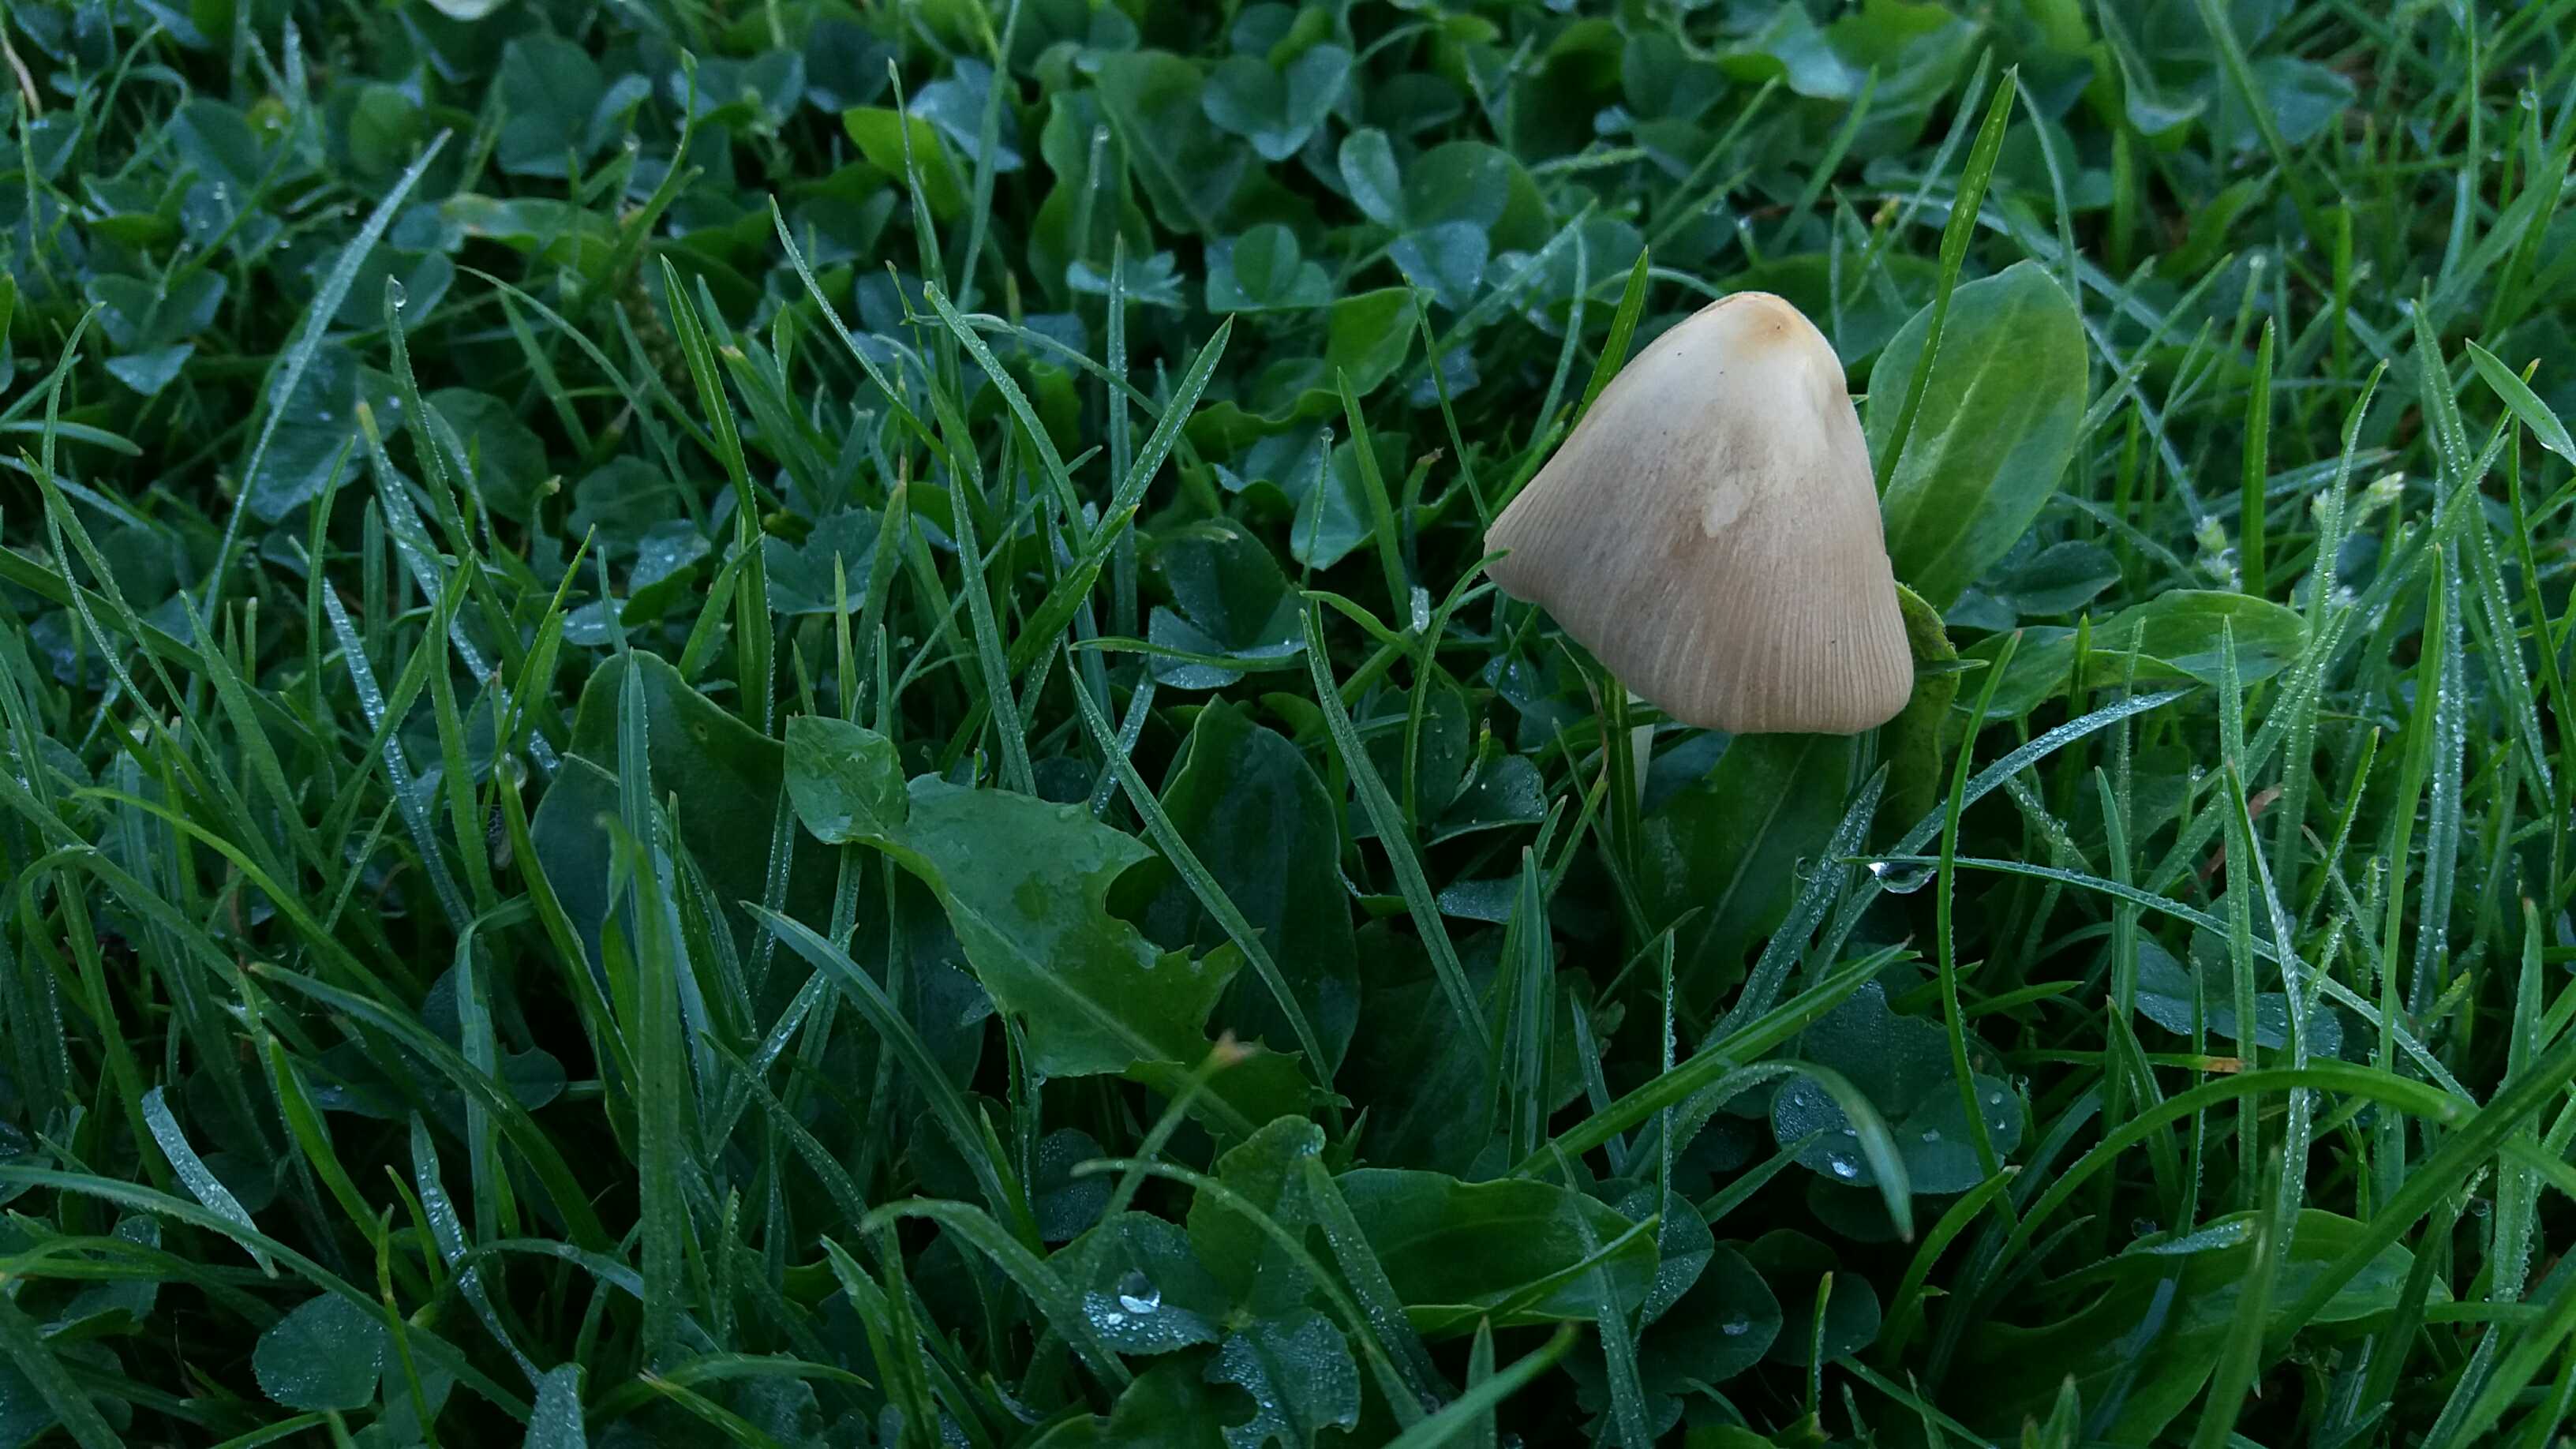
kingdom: Fungi
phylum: Basidiomycota
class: Agaricomycetes
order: Agaricales
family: Bolbitiaceae
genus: Conocybe
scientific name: Conocybe apala
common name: mælkehvid keglehat
